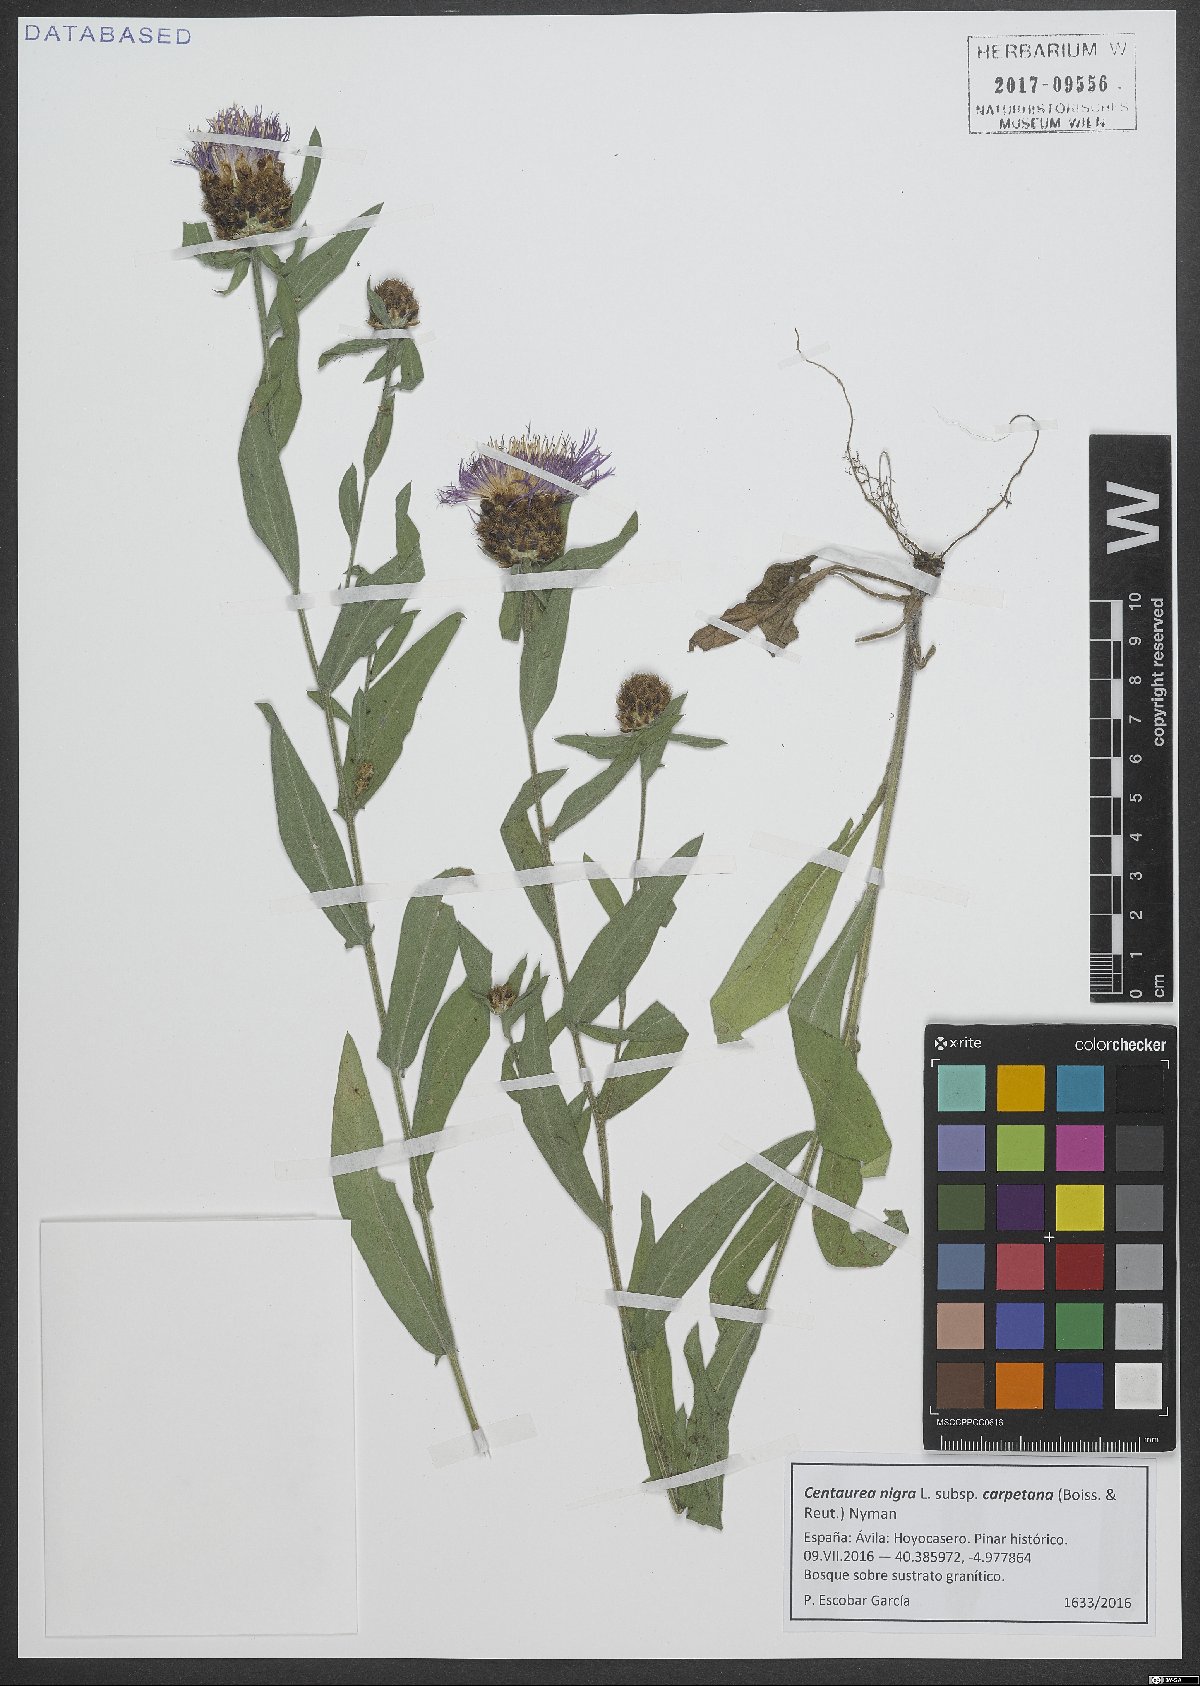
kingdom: Plantae
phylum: Tracheophyta
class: Magnoliopsida
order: Asterales
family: Asteraceae
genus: Centaurea
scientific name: Centaurea nigra
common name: Lesser knapweed
